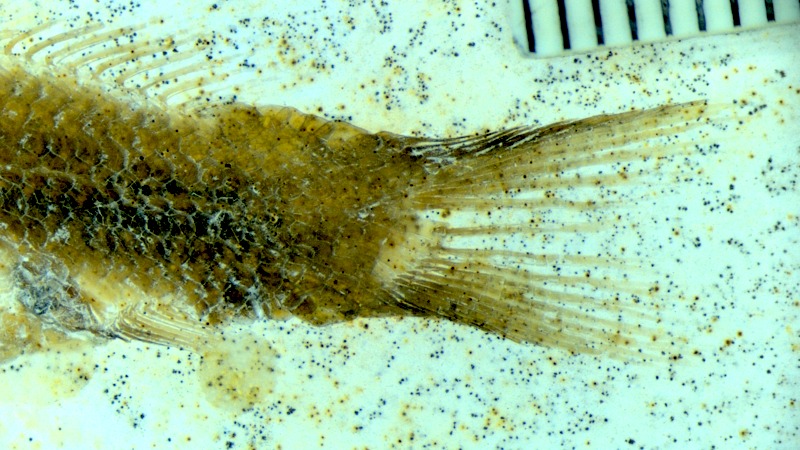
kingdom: Animalia
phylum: Chordata
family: Macrosemiidae
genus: Notagogus
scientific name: Notagogus denticulatus
